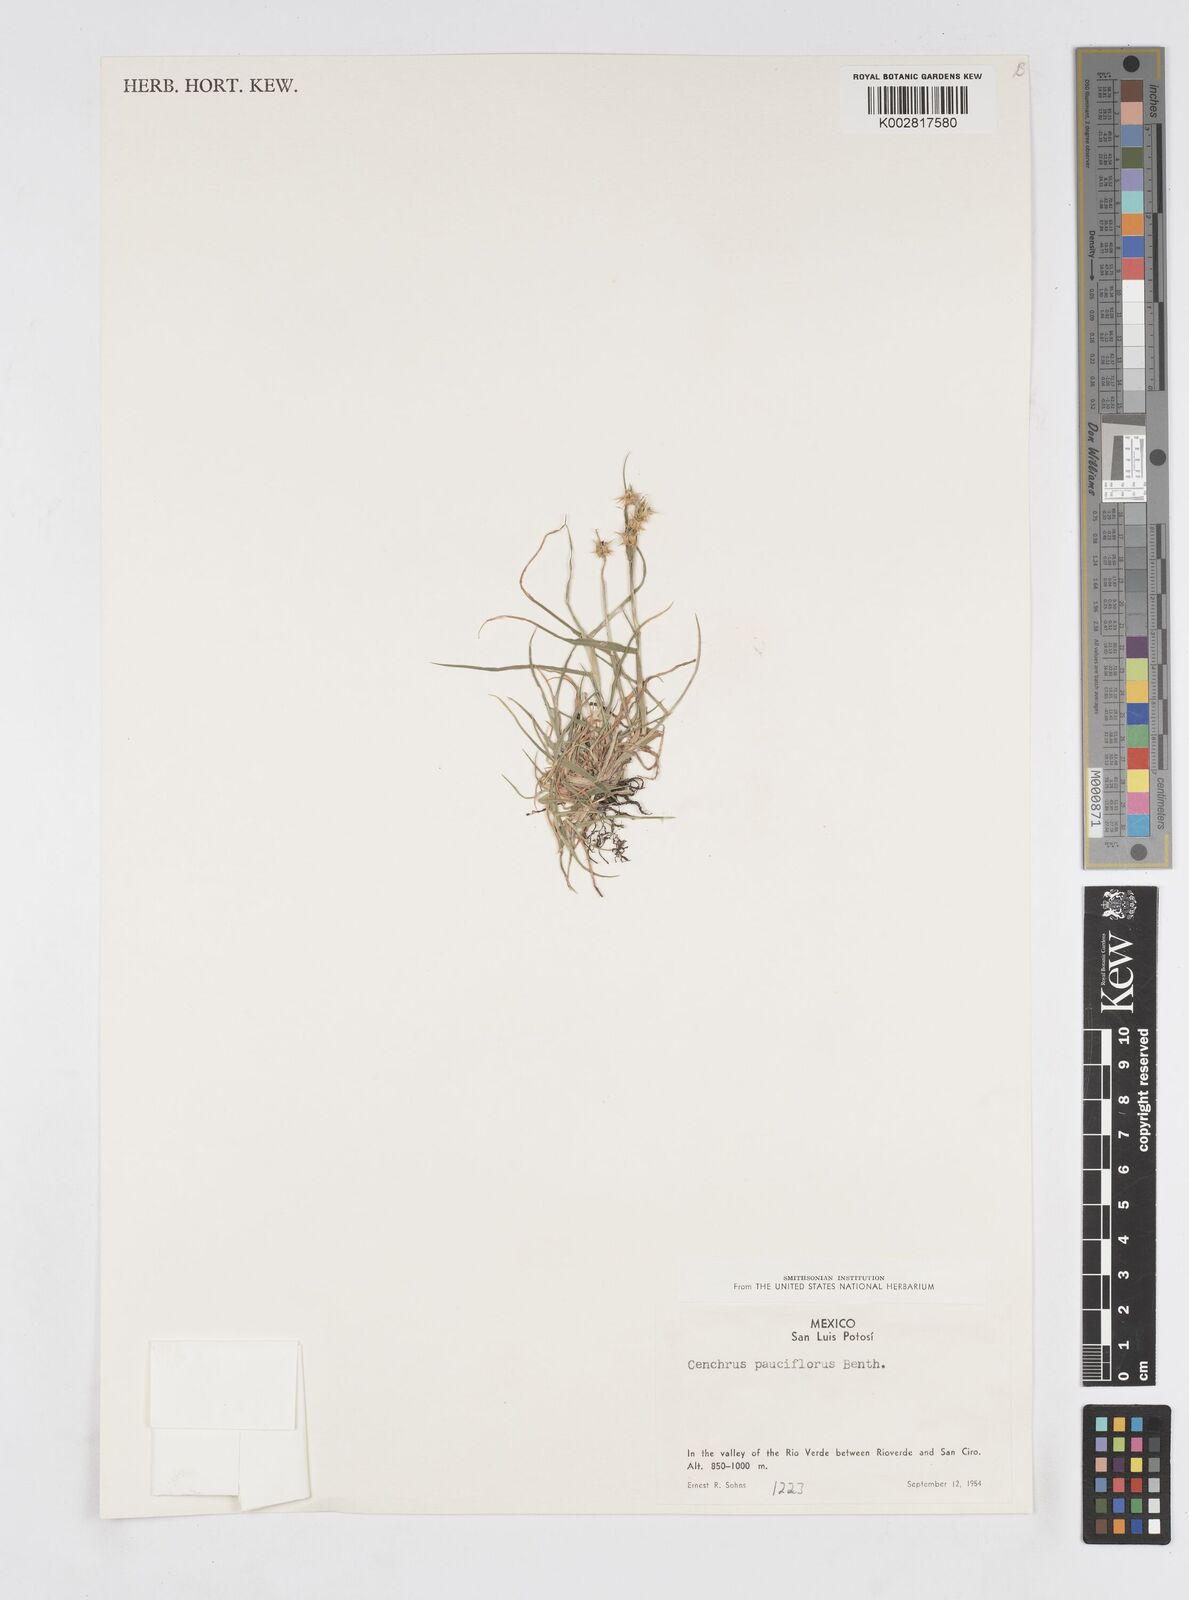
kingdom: Plantae
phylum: Tracheophyta
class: Liliopsida
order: Poales
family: Poaceae
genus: Cenchrus
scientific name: Cenchrus spinifex
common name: Coast sandbur
